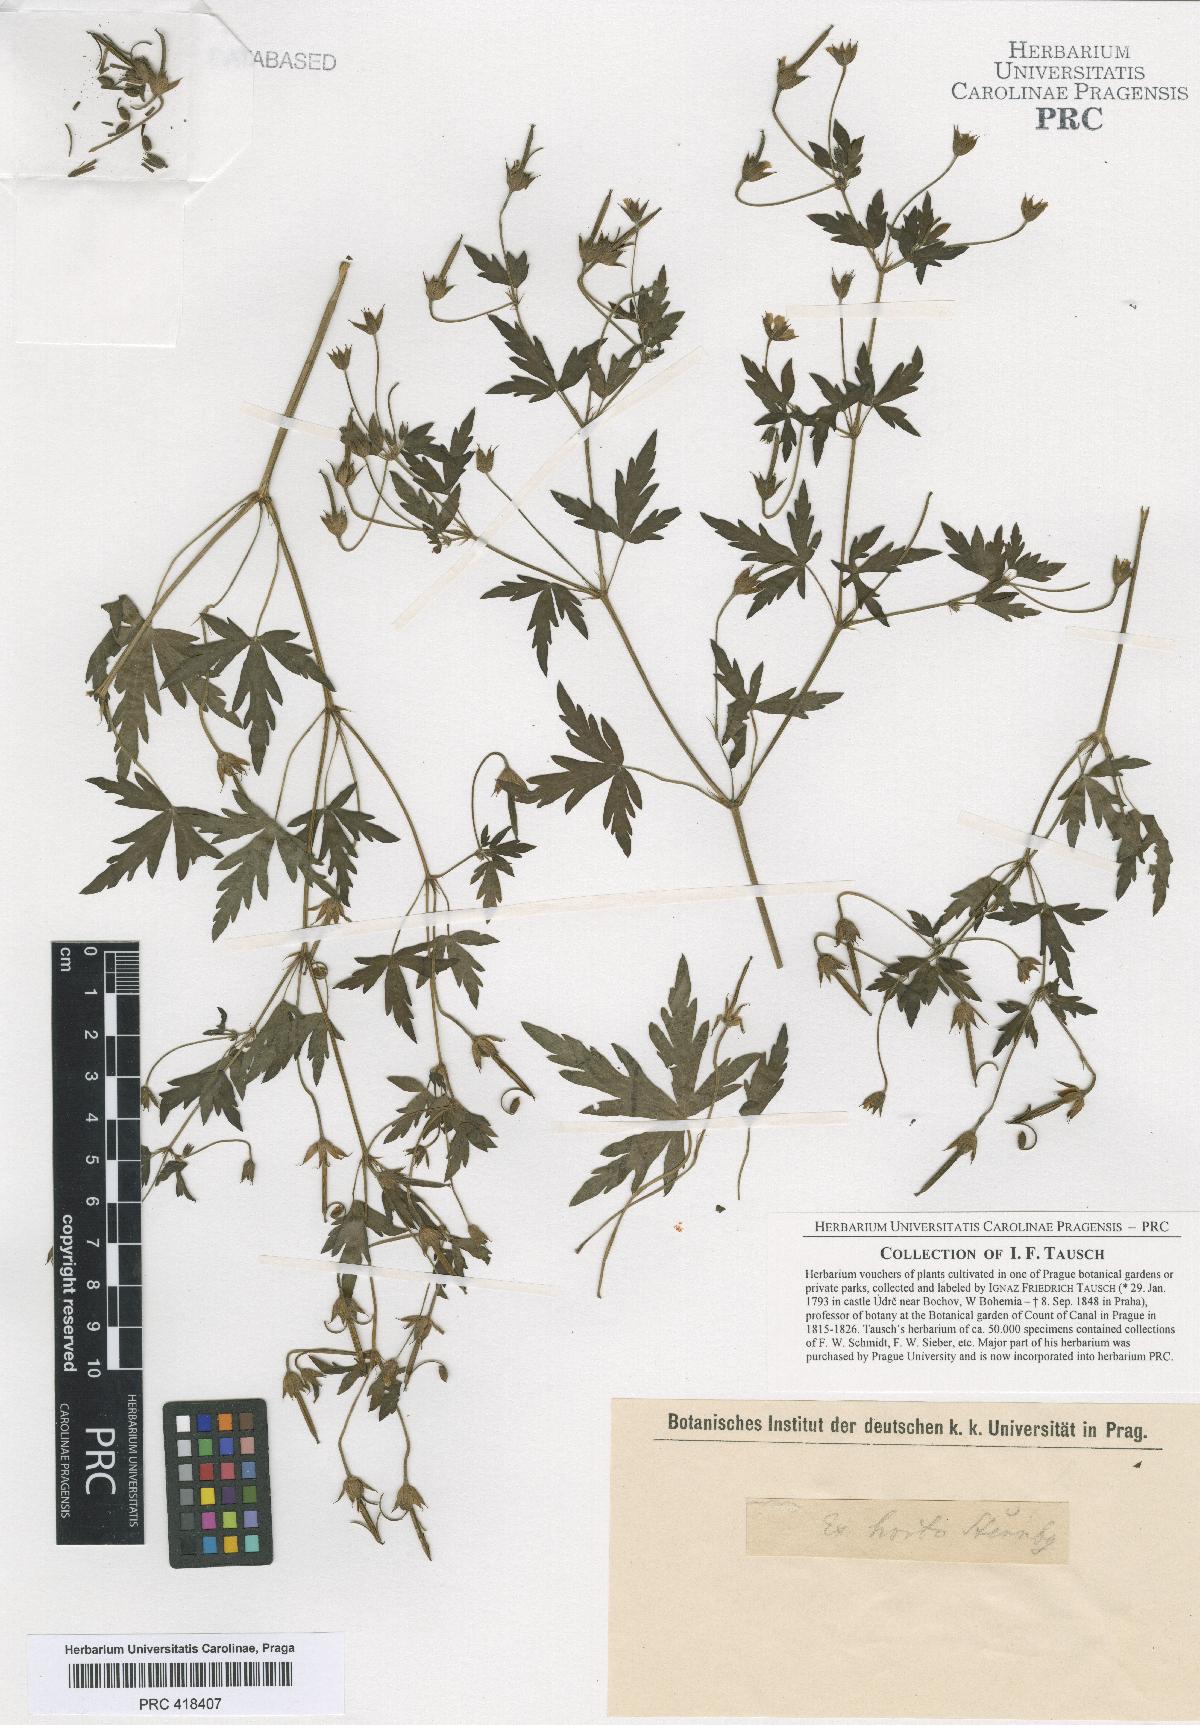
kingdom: Plantae
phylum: Tracheophyta
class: Magnoliopsida
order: Geraniales
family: Geraniaceae
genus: Geranium
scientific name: Geranium sibiricum
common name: Siberian crane's-bill
